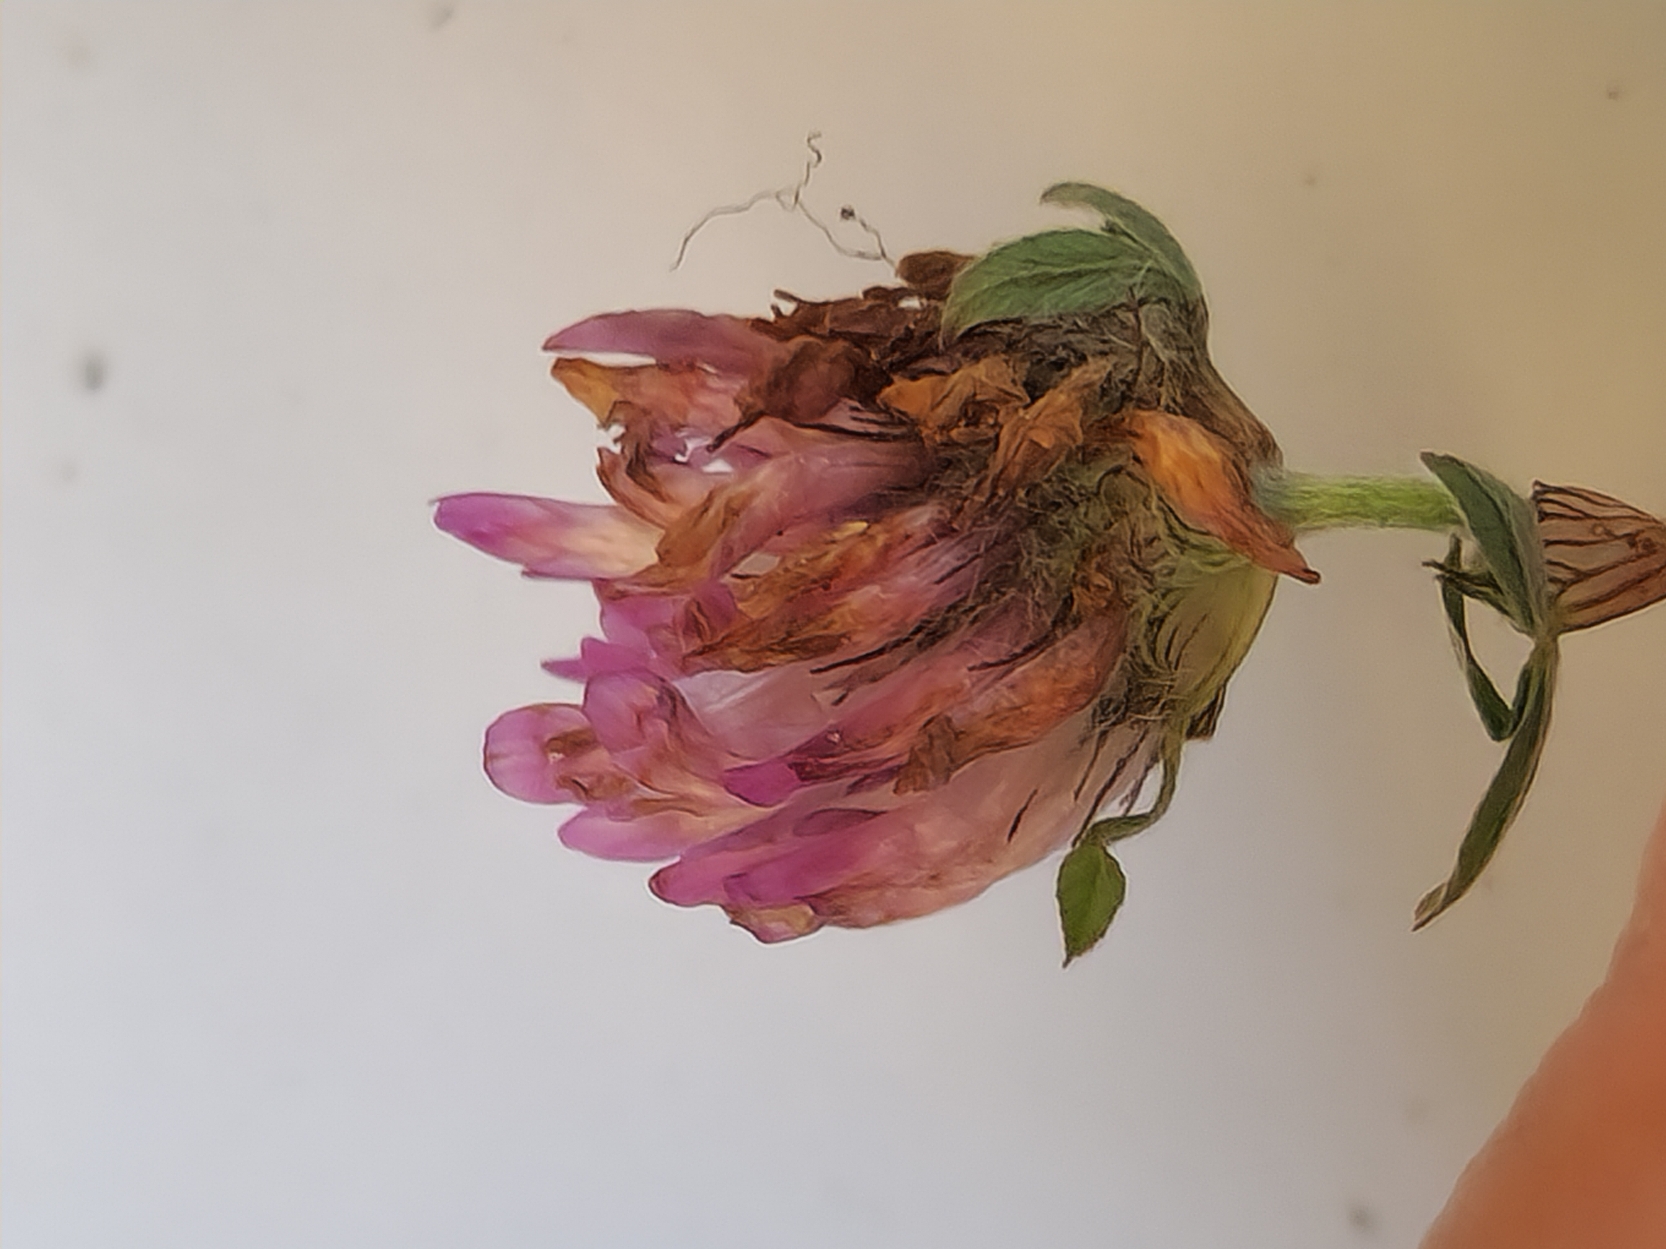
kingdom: Plantae
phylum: Tracheophyta
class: Magnoliopsida
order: Fabales
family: Fabaceae
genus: Trifolium
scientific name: Trifolium pratense
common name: Rød-kløver
